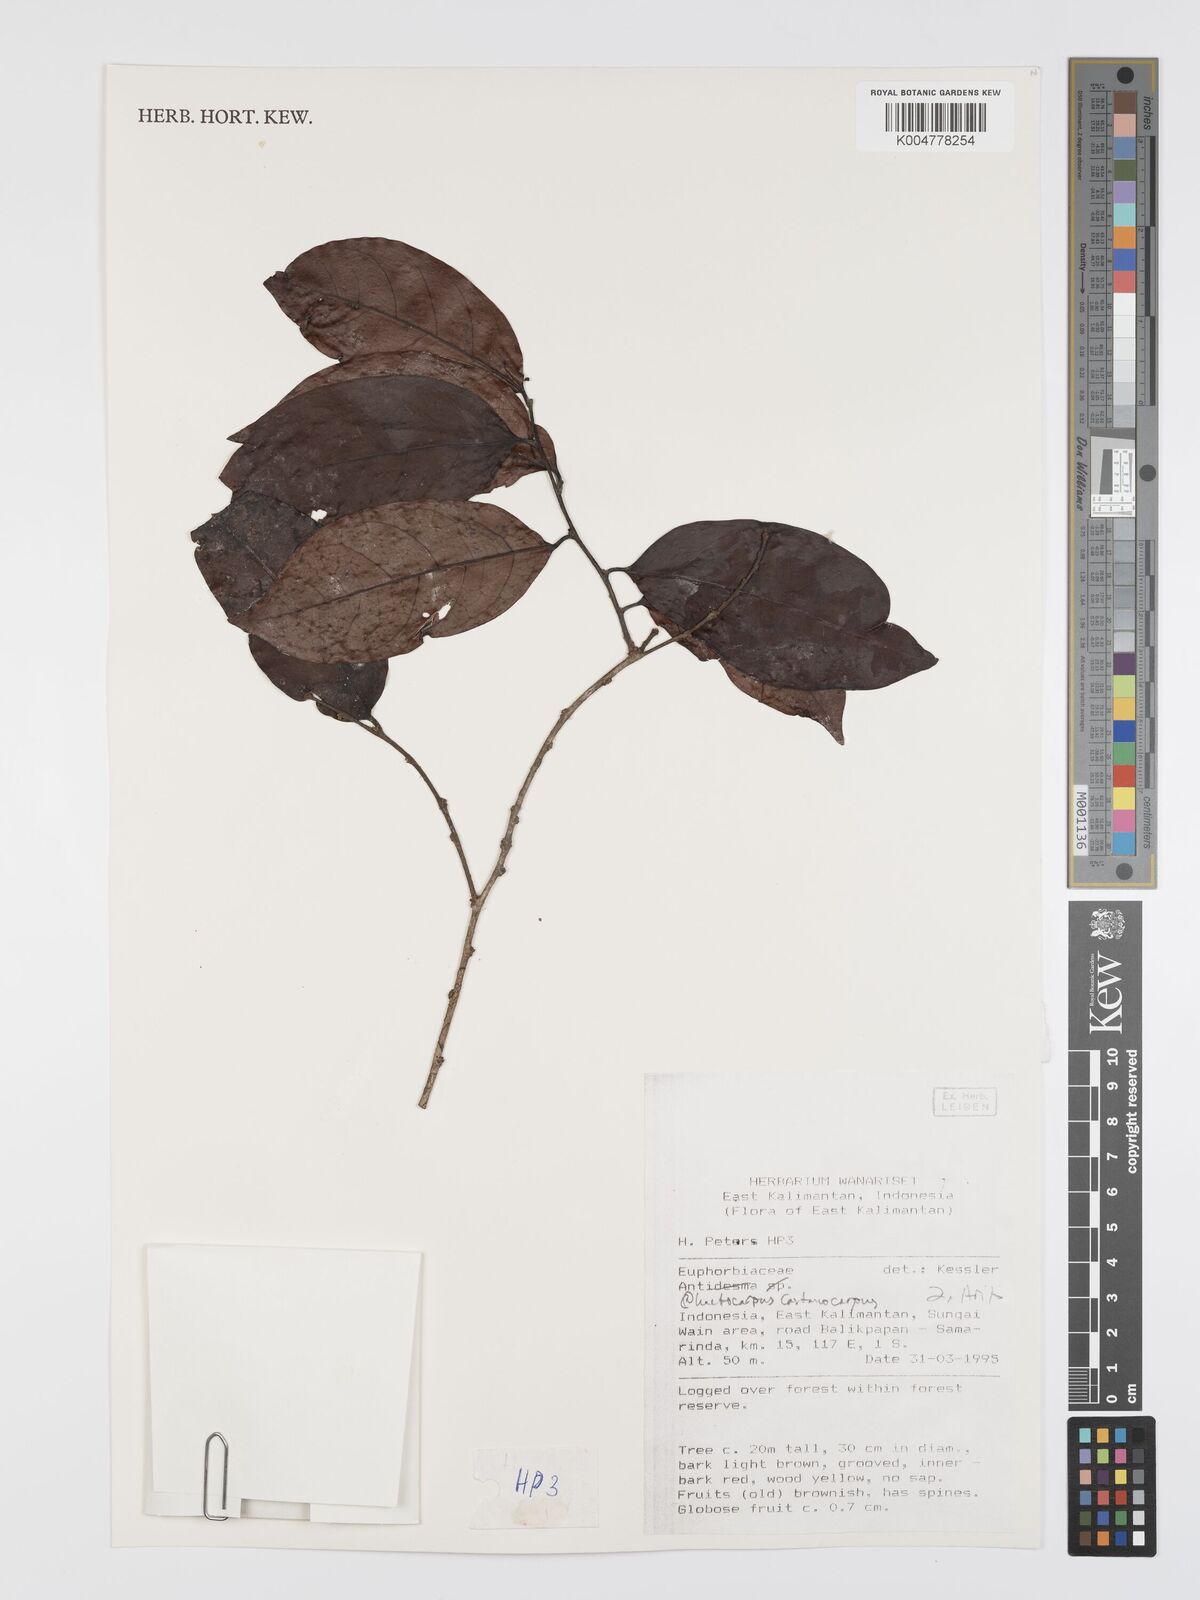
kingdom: Plantae
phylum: Tracheophyta
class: Magnoliopsida
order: Malpighiales
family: Peraceae
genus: Chaetocarpus
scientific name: Chaetocarpus castanocarpus
